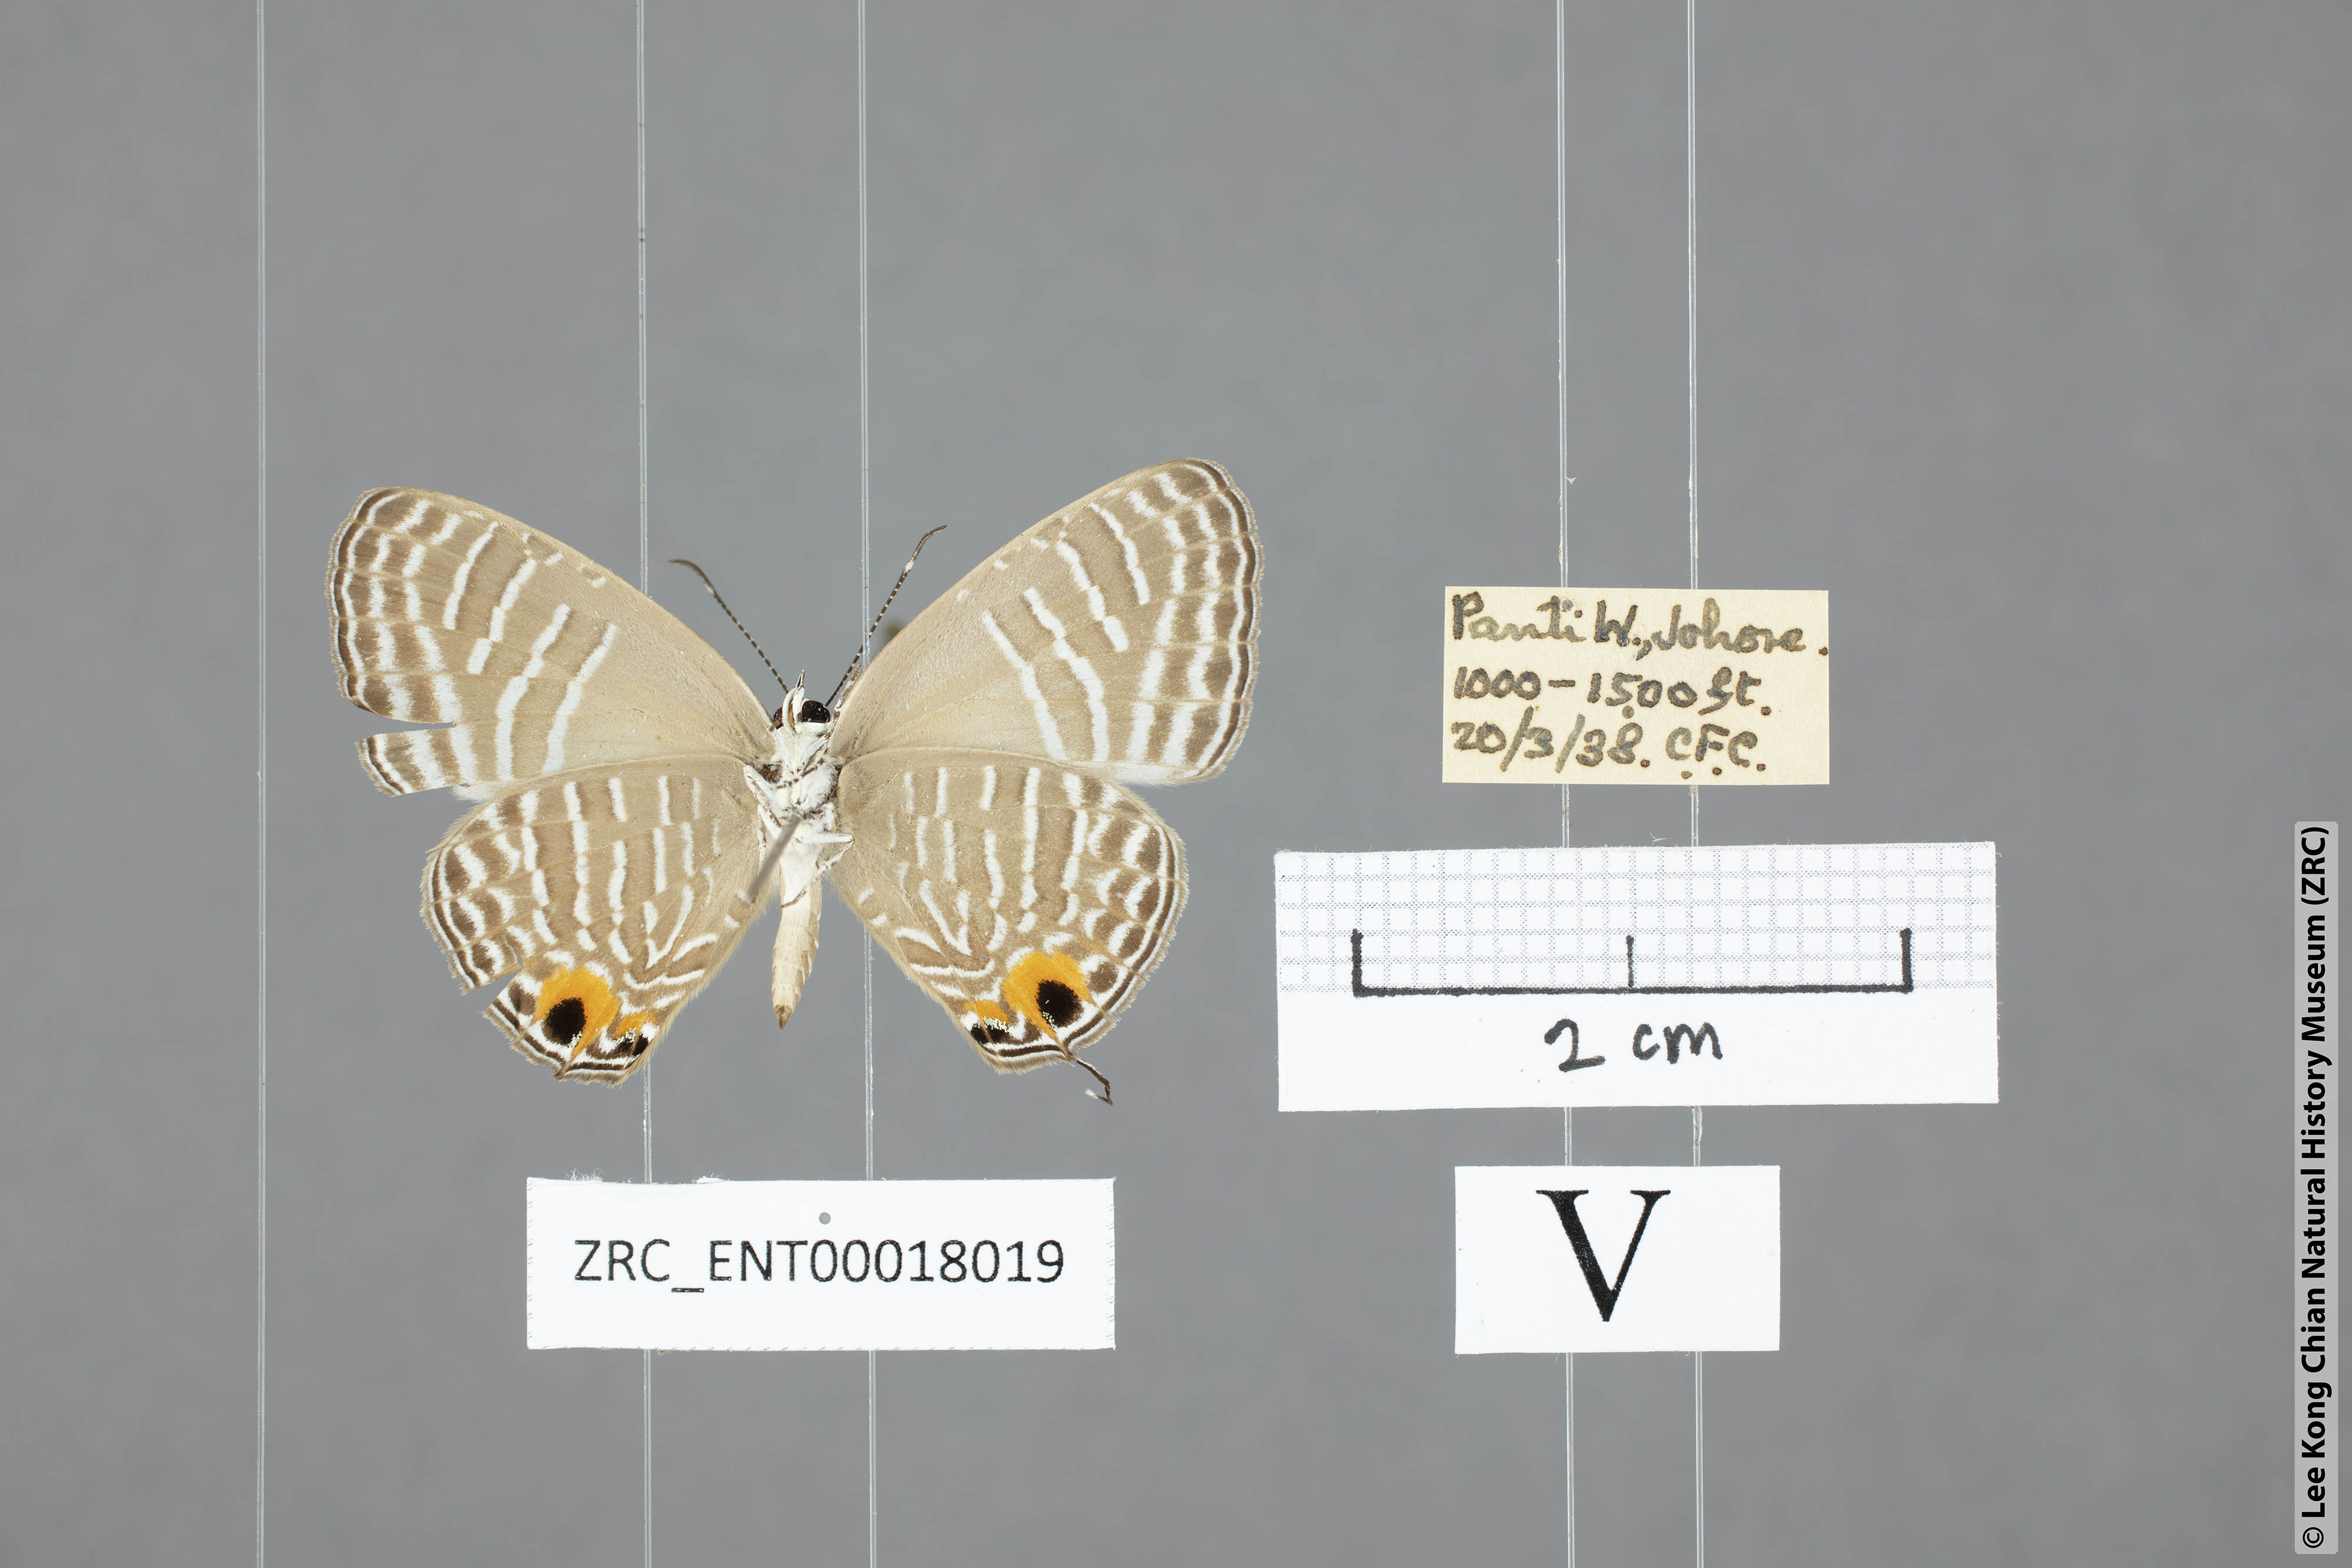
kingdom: Animalia
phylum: Arthropoda
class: Insecta
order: Lepidoptera
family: Lycaenidae
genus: Jamides
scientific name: Jamides abdul
